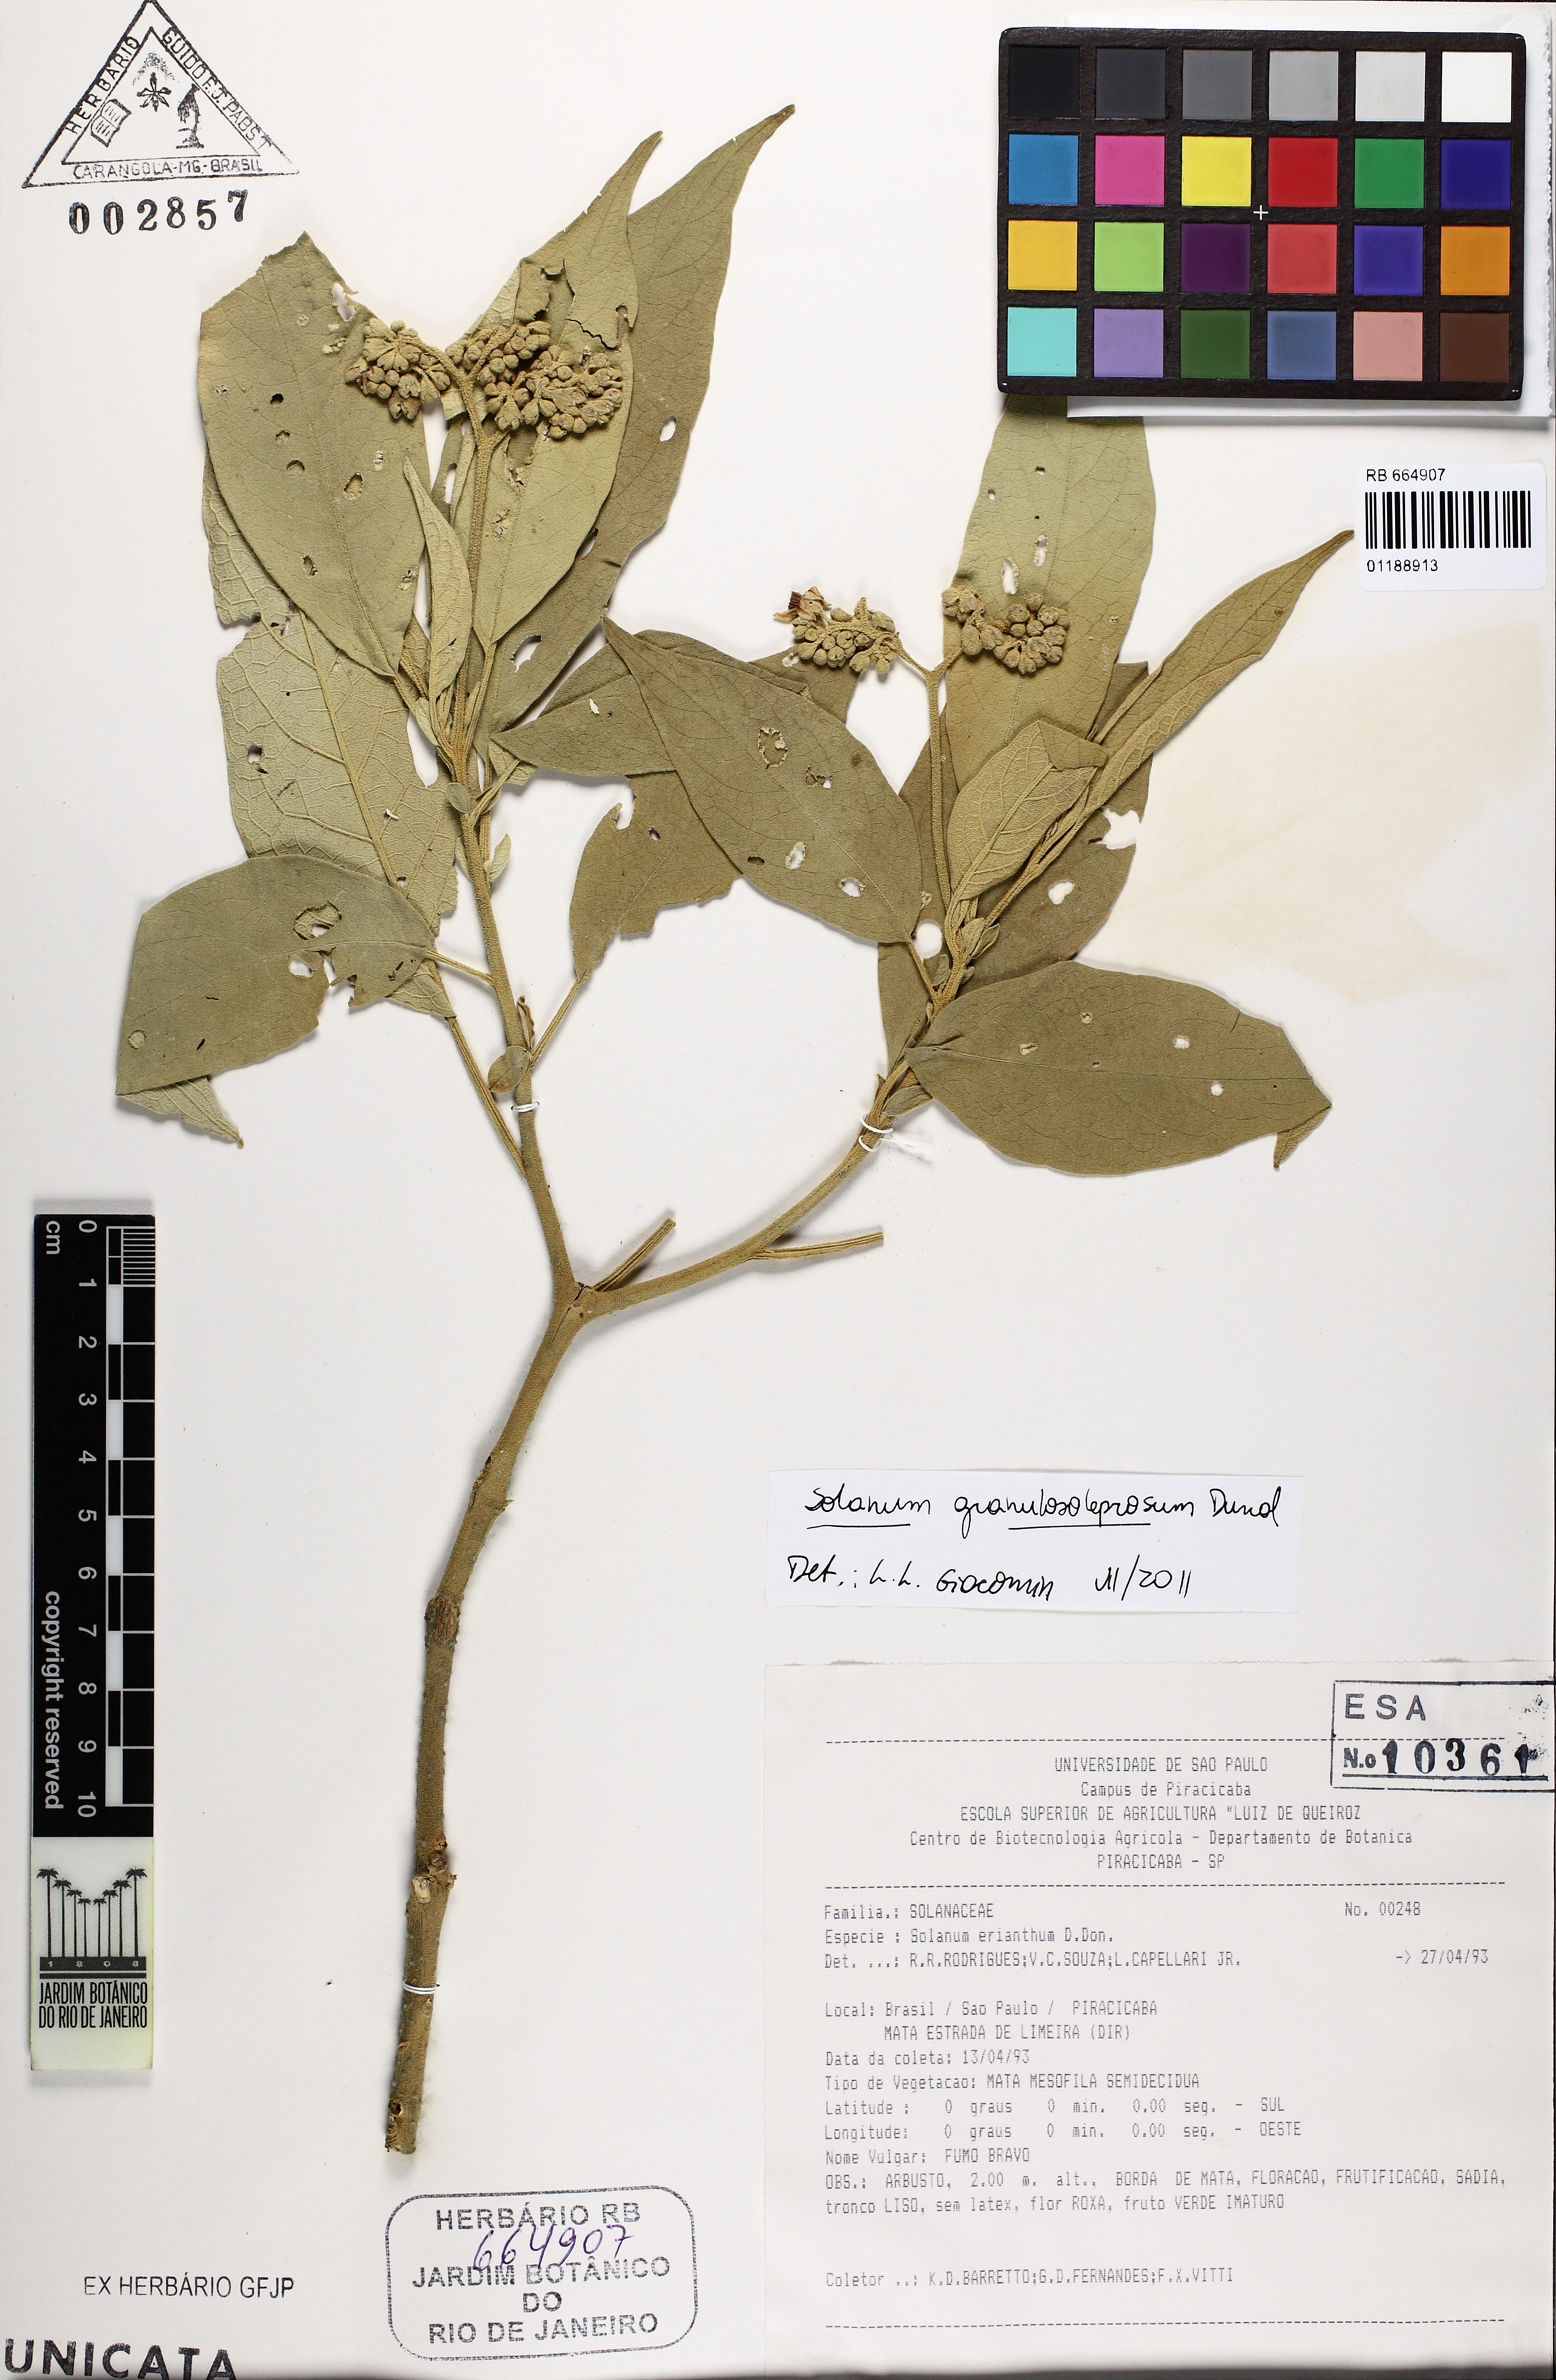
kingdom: Plantae
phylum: Tracheophyta
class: Magnoliopsida
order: Solanales
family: Solanaceae
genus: Solanum
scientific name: Solanum granulosoleprosum
